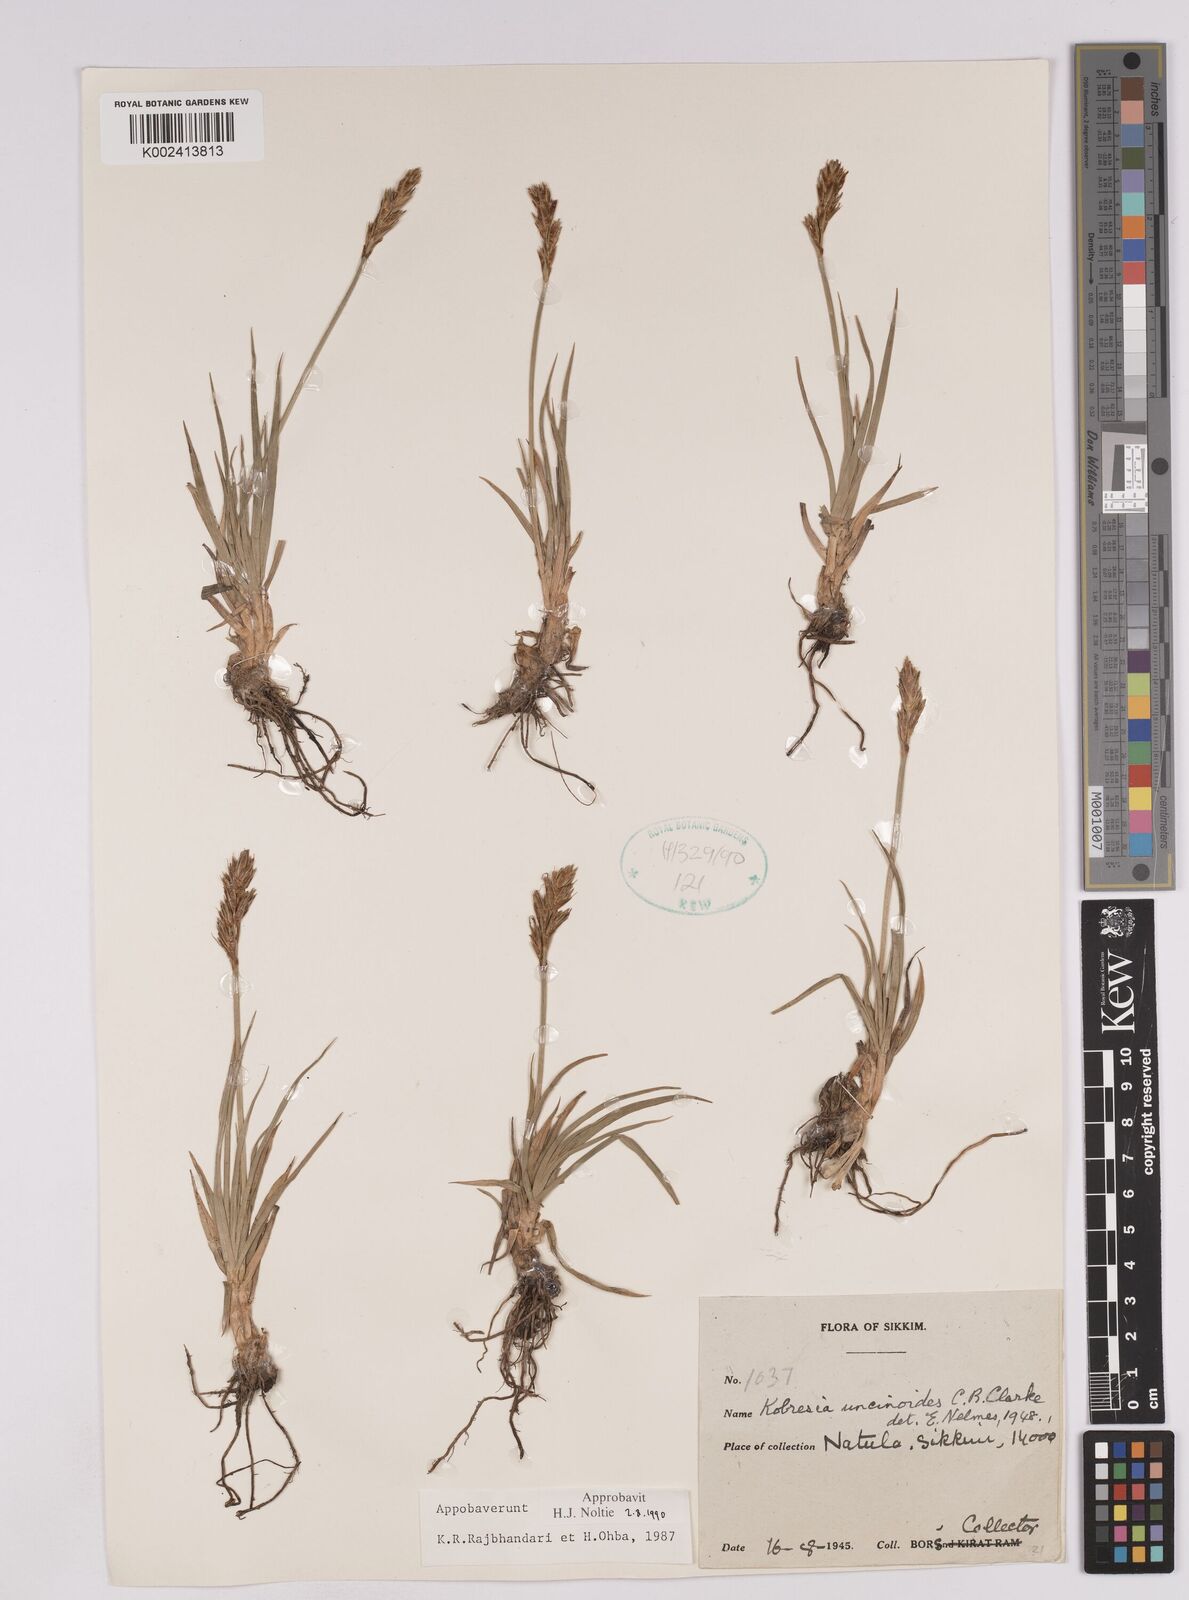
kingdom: Plantae
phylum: Tracheophyta
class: Liliopsida
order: Poales
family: Cyperaceae
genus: Carex
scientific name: Carex uncinioides
